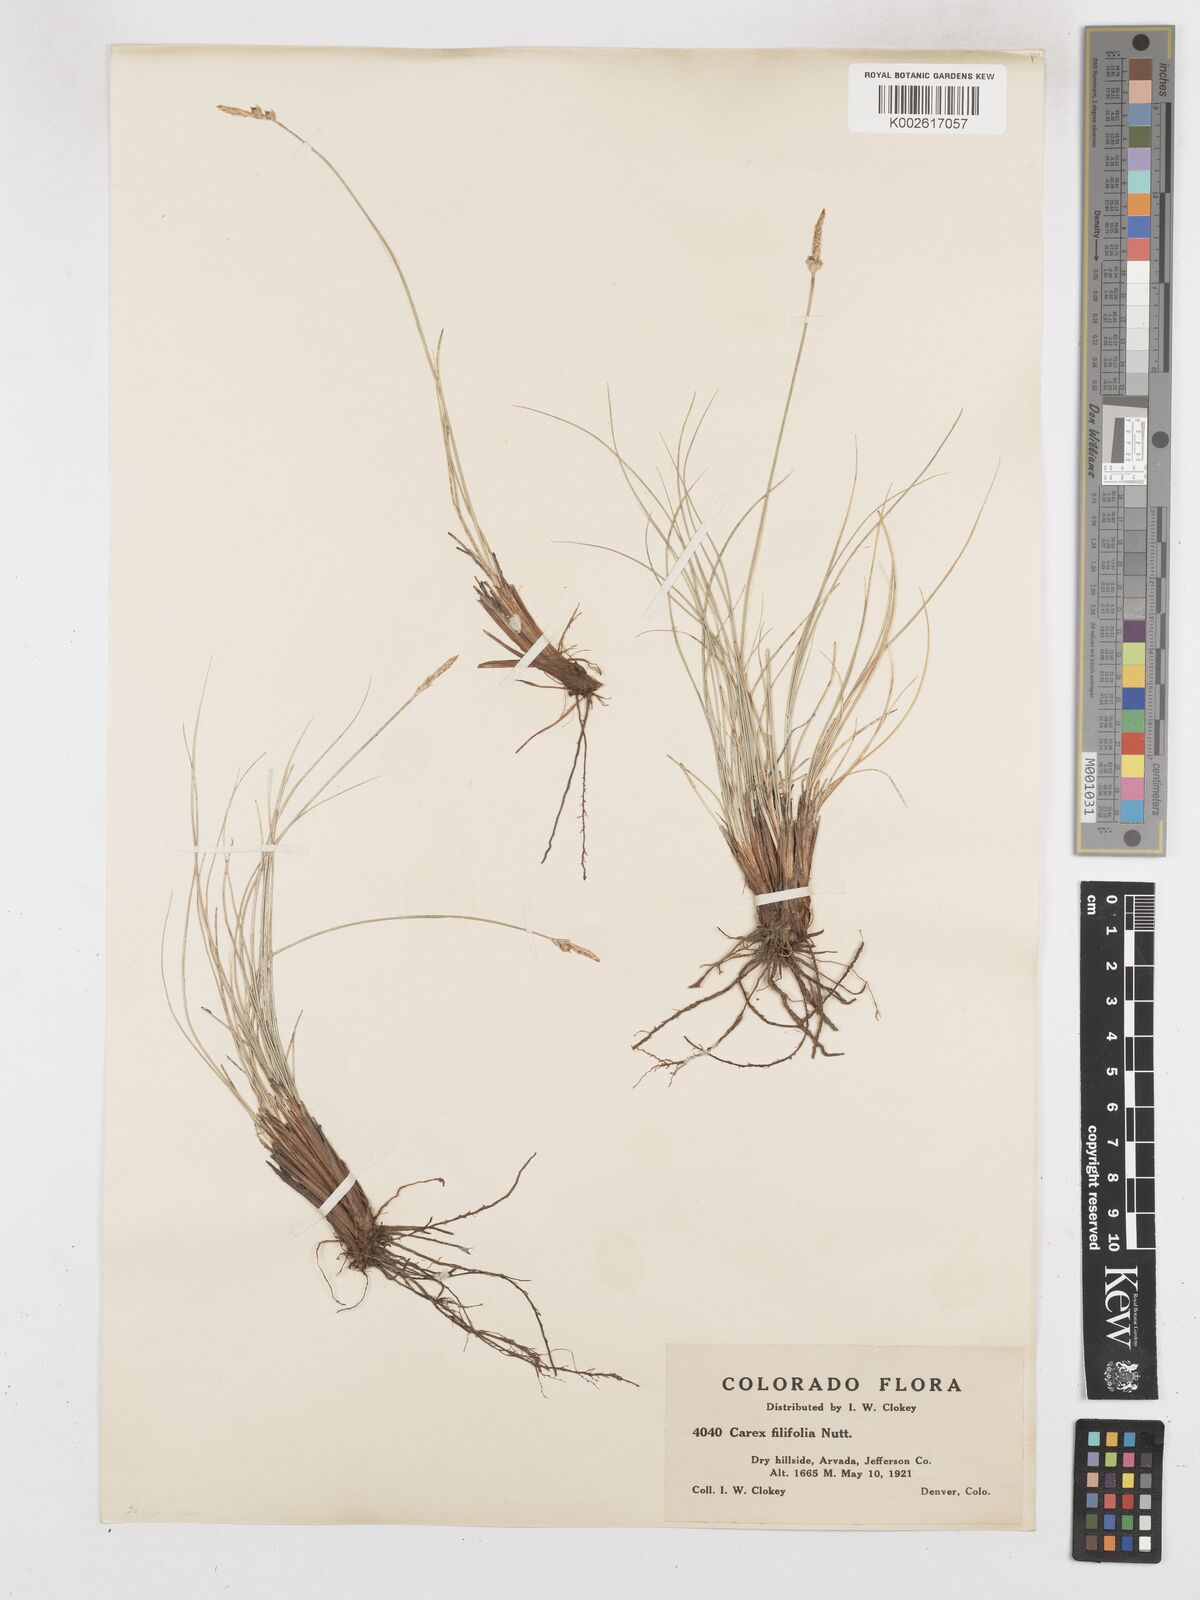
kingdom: Plantae
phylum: Tracheophyta
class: Liliopsida
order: Poales
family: Cyperaceae
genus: Carex
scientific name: Carex filifolia
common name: Threadleaf sedge
